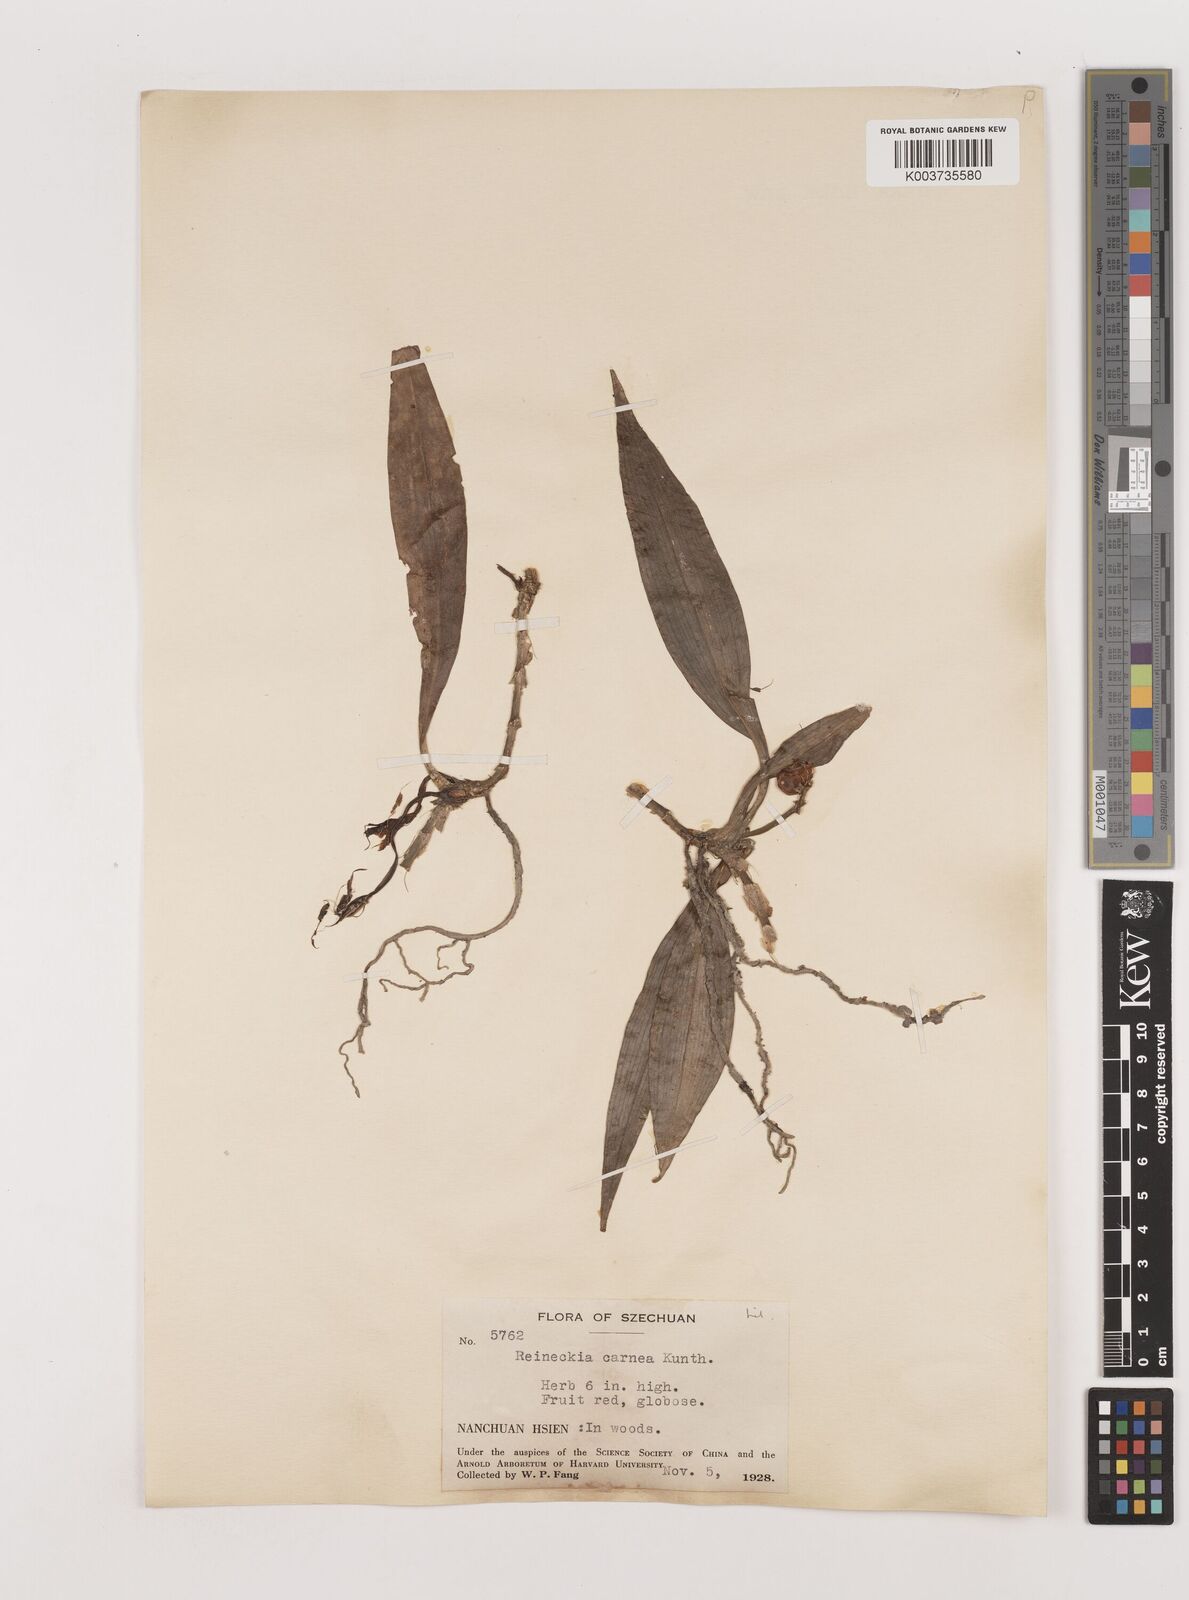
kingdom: Plantae
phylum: Tracheophyta
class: Liliopsida
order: Asparagales
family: Asparagaceae
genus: Reineckea
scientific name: Reineckea carnea
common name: Reineckea
